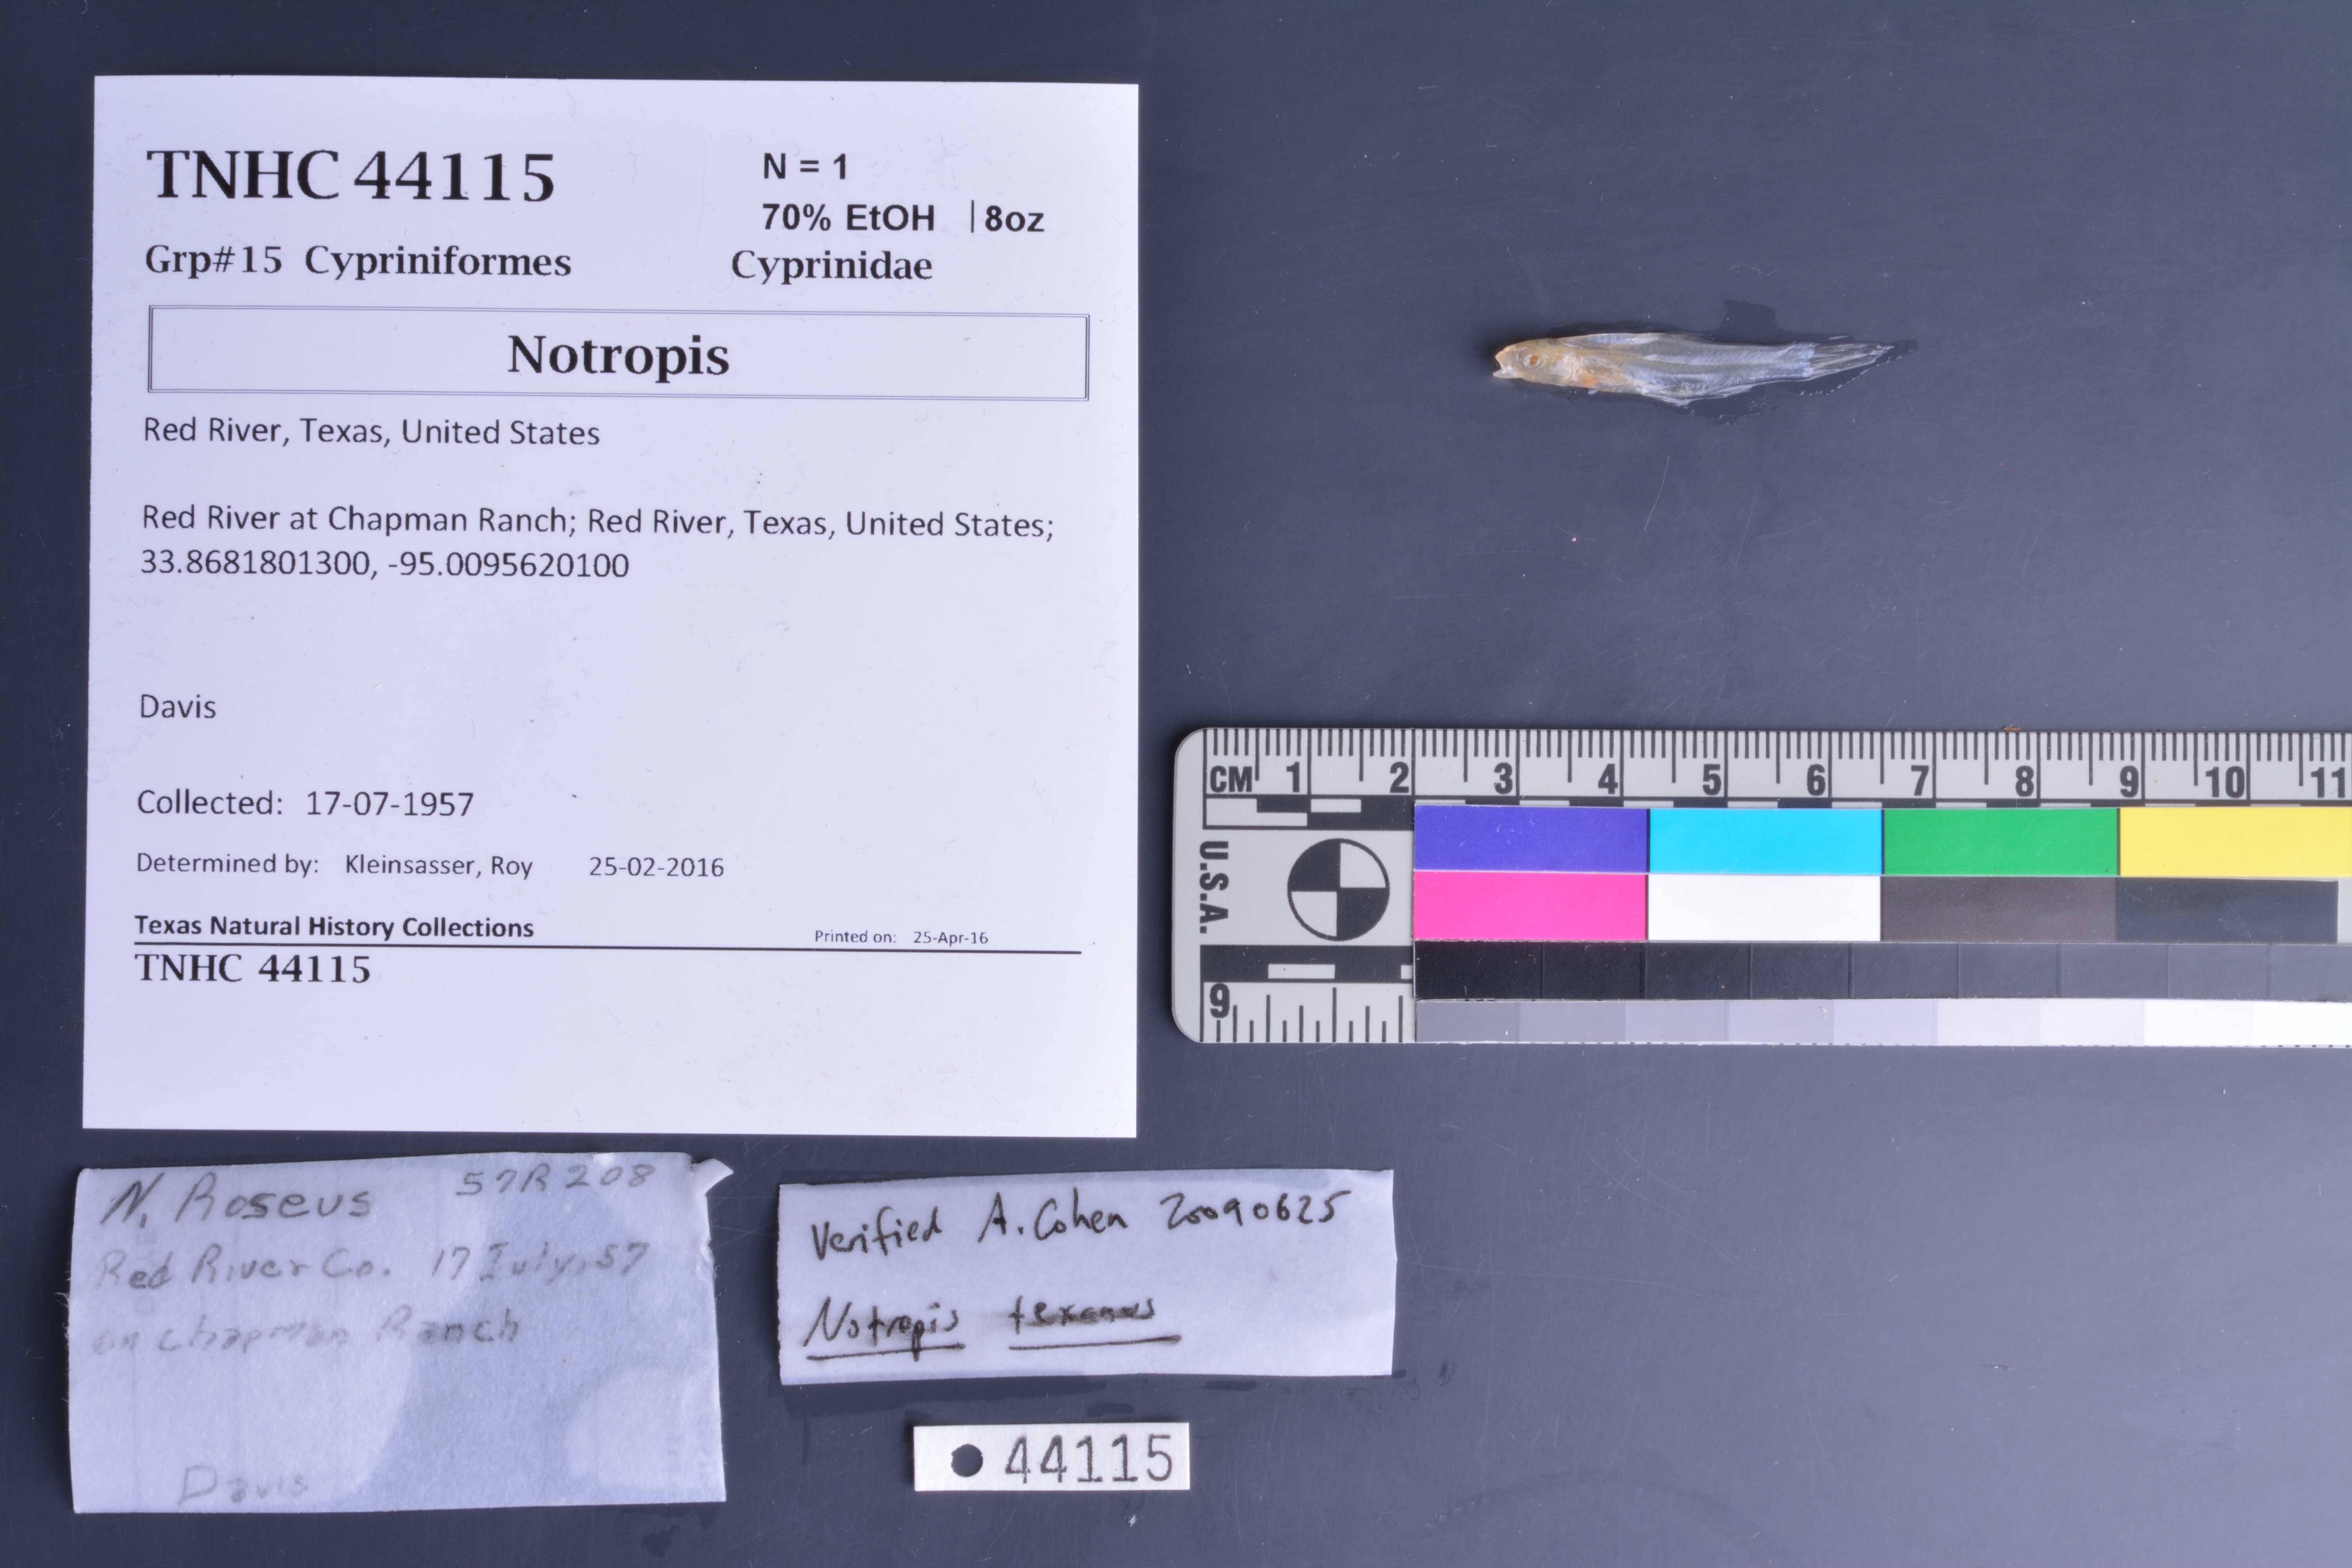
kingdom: Animalia
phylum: Chordata
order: Cypriniformes
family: Cyprinidae
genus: Notropis
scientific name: Notropis
